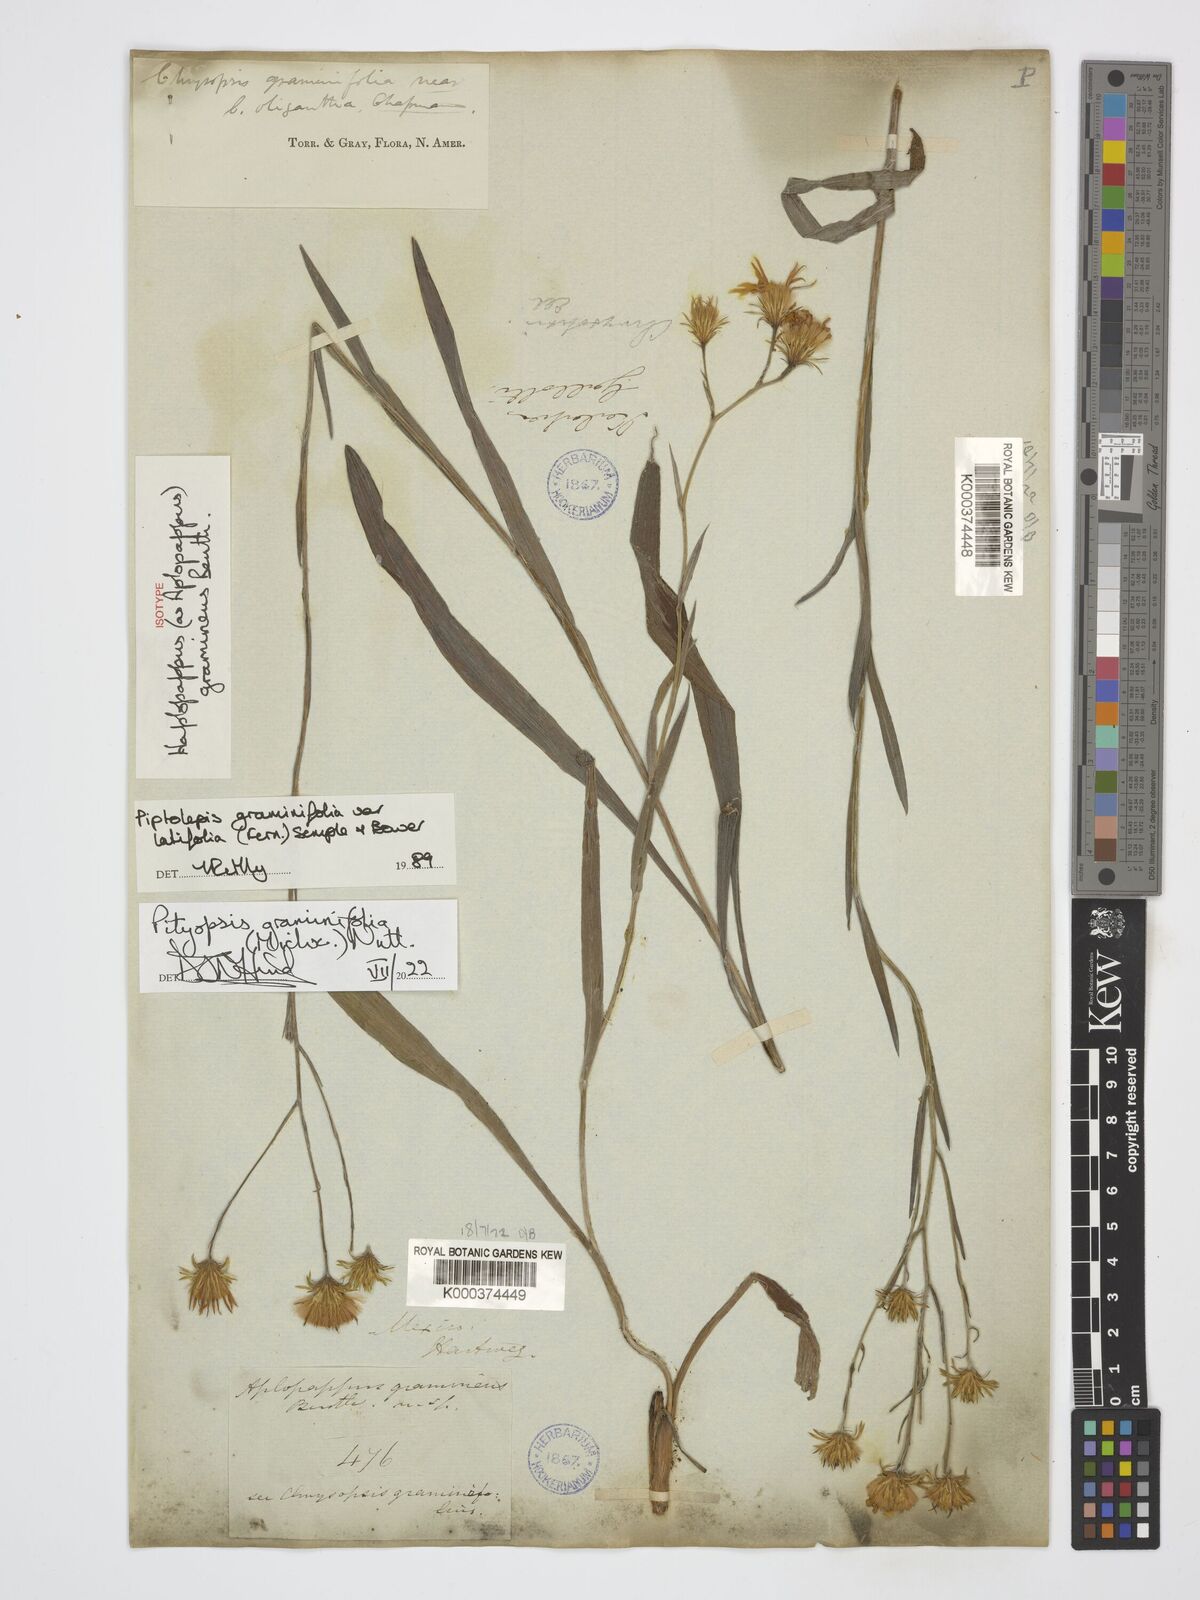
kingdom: Plantae
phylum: Tracheophyta
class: Magnoliopsida
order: Asterales
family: Asteraceae
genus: Pityopsis
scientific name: Pityopsis graminifolia
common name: Grass-leaf golden-aster
